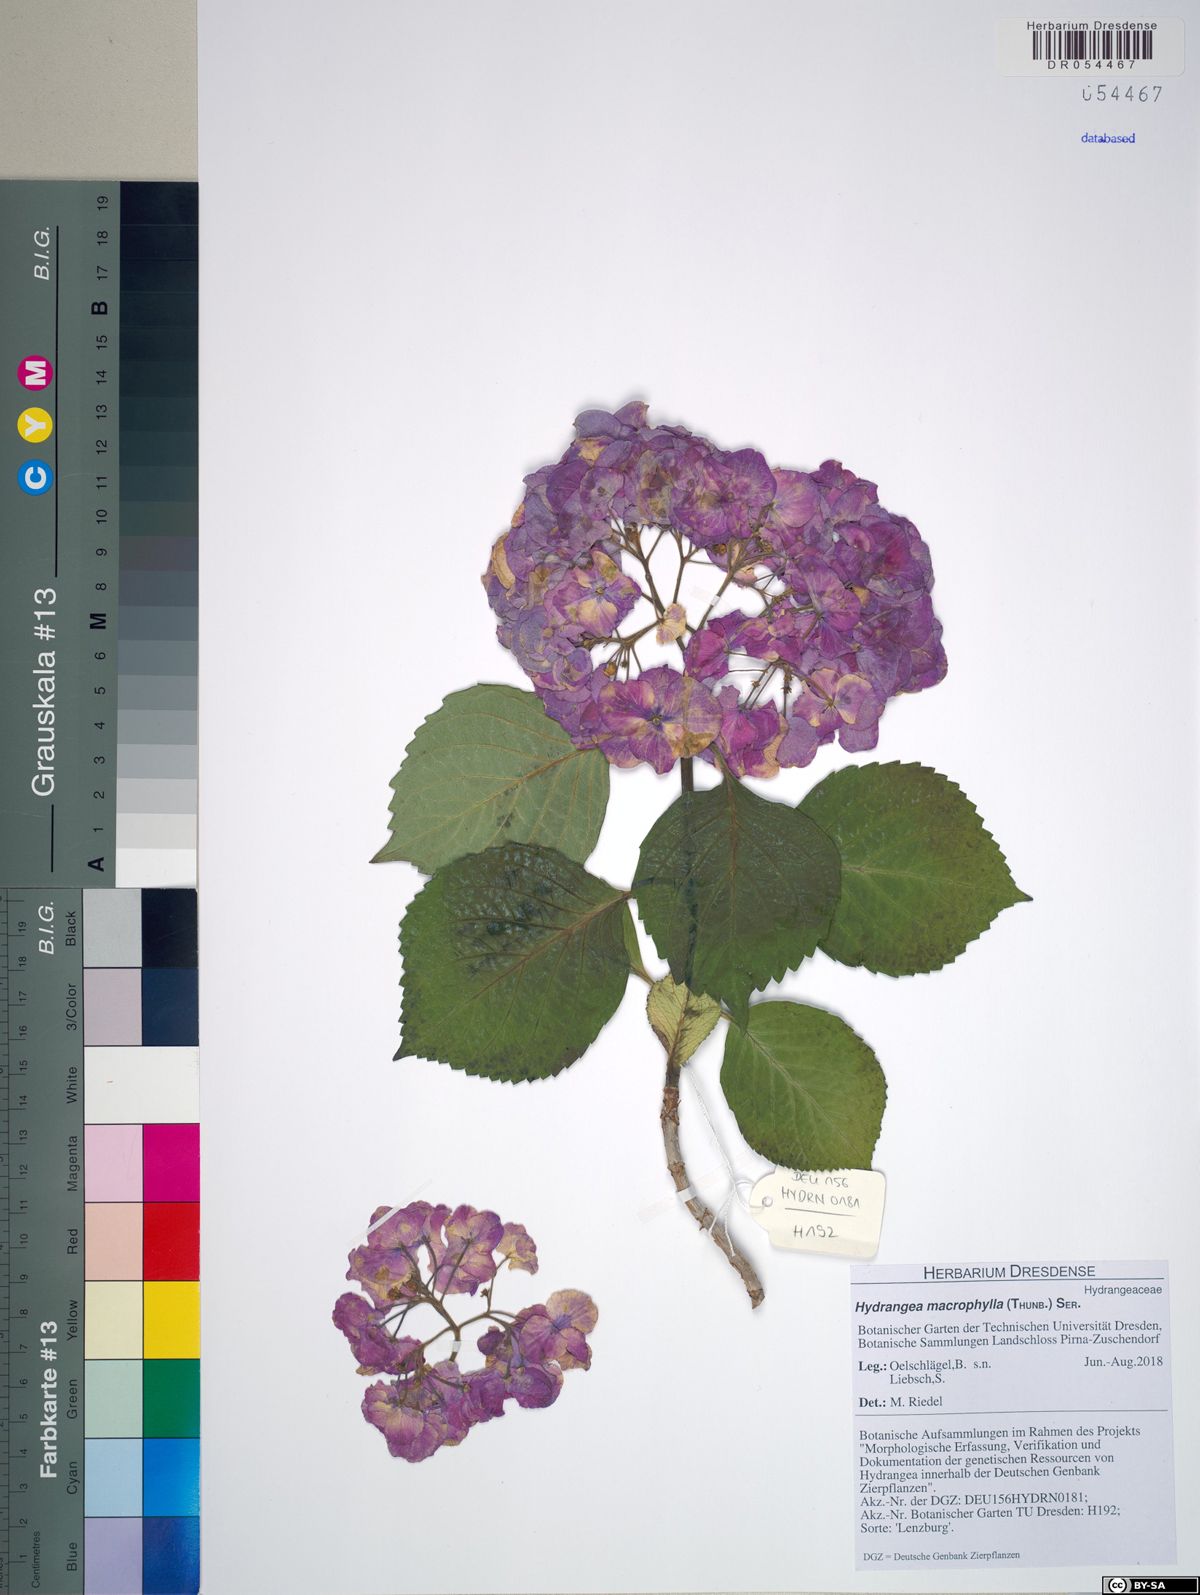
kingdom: Plantae
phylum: Tracheophyta
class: Magnoliopsida
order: Cornales
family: Hydrangeaceae
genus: Hydrangea
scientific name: Hydrangea macrophylla
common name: Hydrangea
